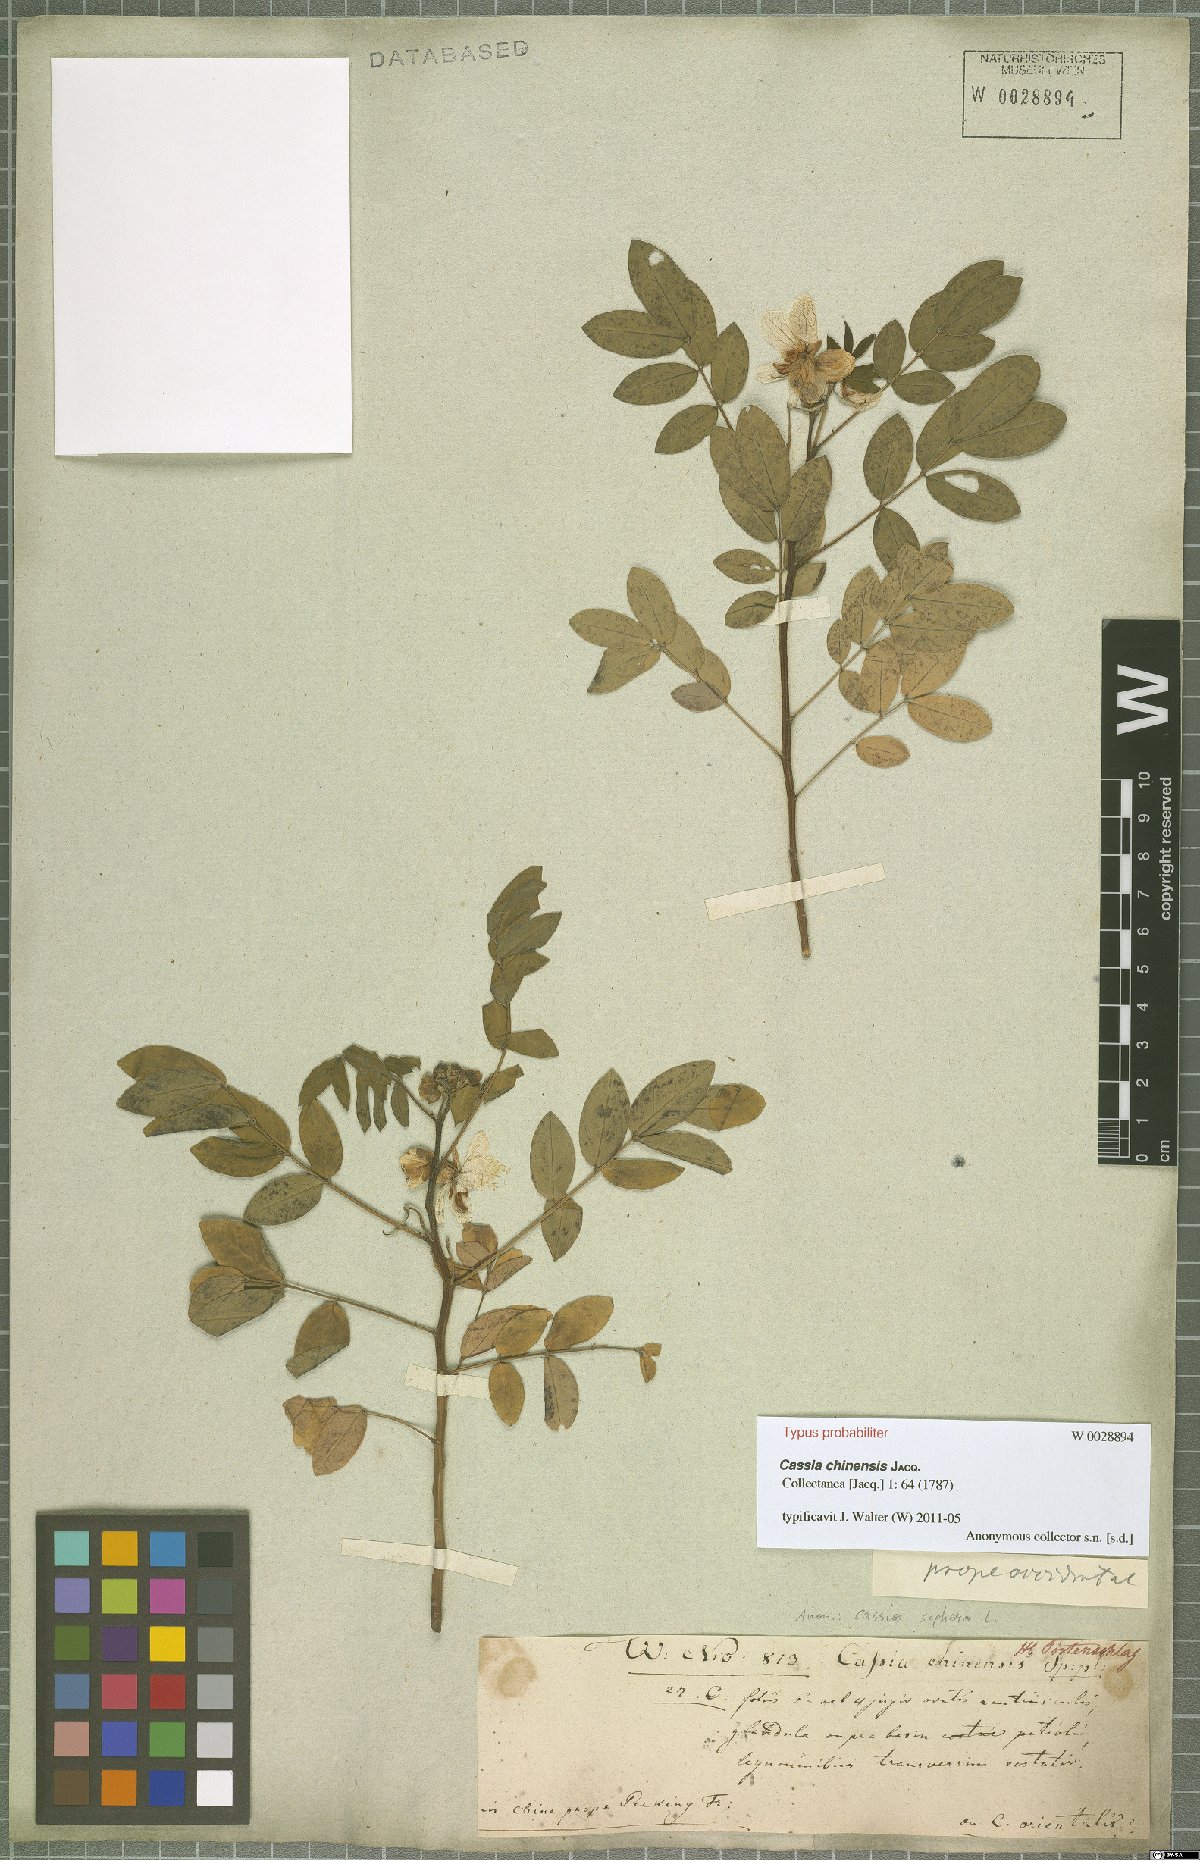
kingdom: Plantae
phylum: Tracheophyta
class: Magnoliopsida
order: Fabales
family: Fabaceae
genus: Senna
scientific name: Senna sophera
